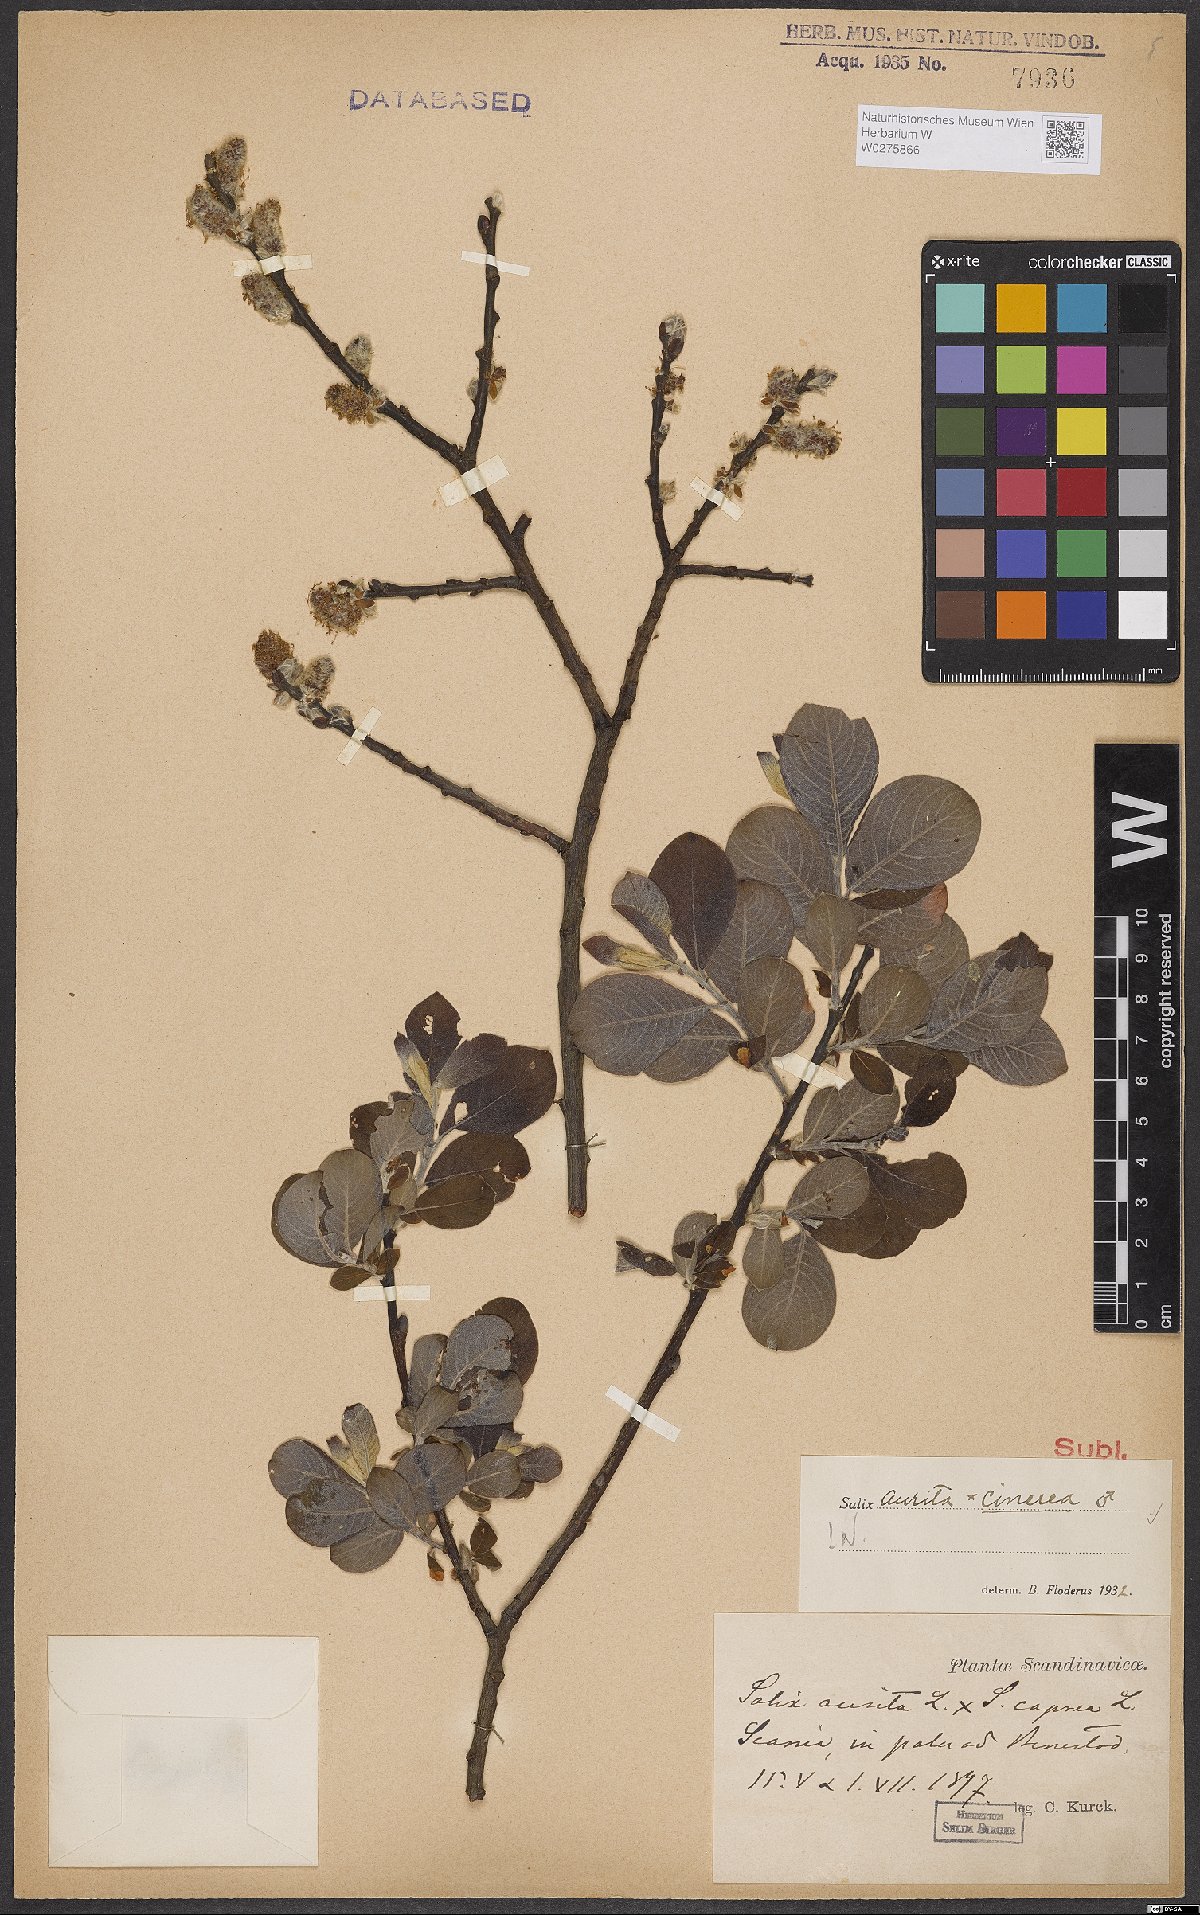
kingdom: Plantae
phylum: Tracheophyta
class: Magnoliopsida
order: Malpighiales
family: Salicaceae
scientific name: Salicaceae
